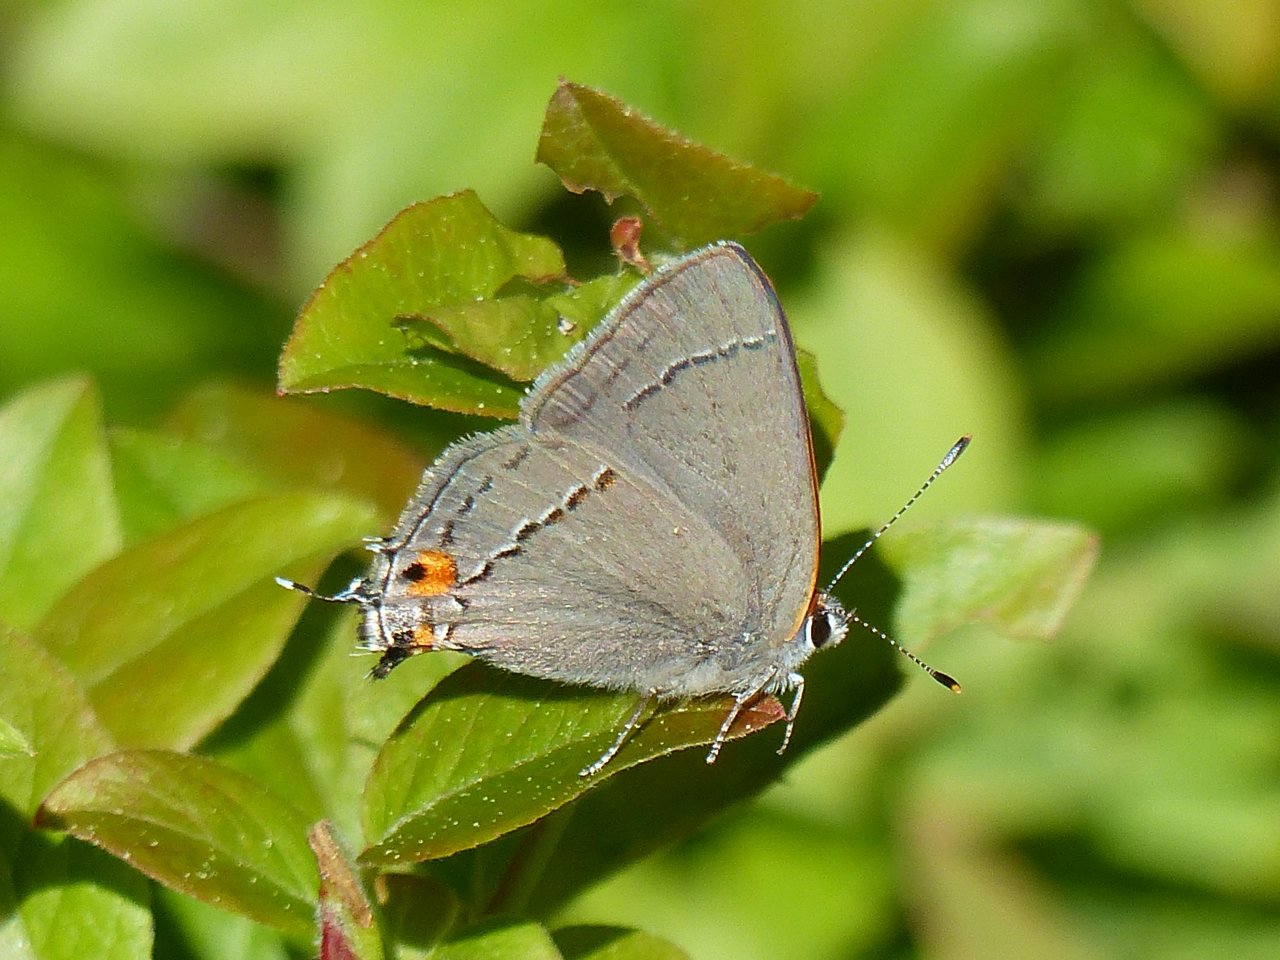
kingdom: Animalia
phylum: Arthropoda
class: Insecta
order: Lepidoptera
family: Lycaenidae
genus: Strymon
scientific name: Strymon melinus
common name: Gray Hairstreak
